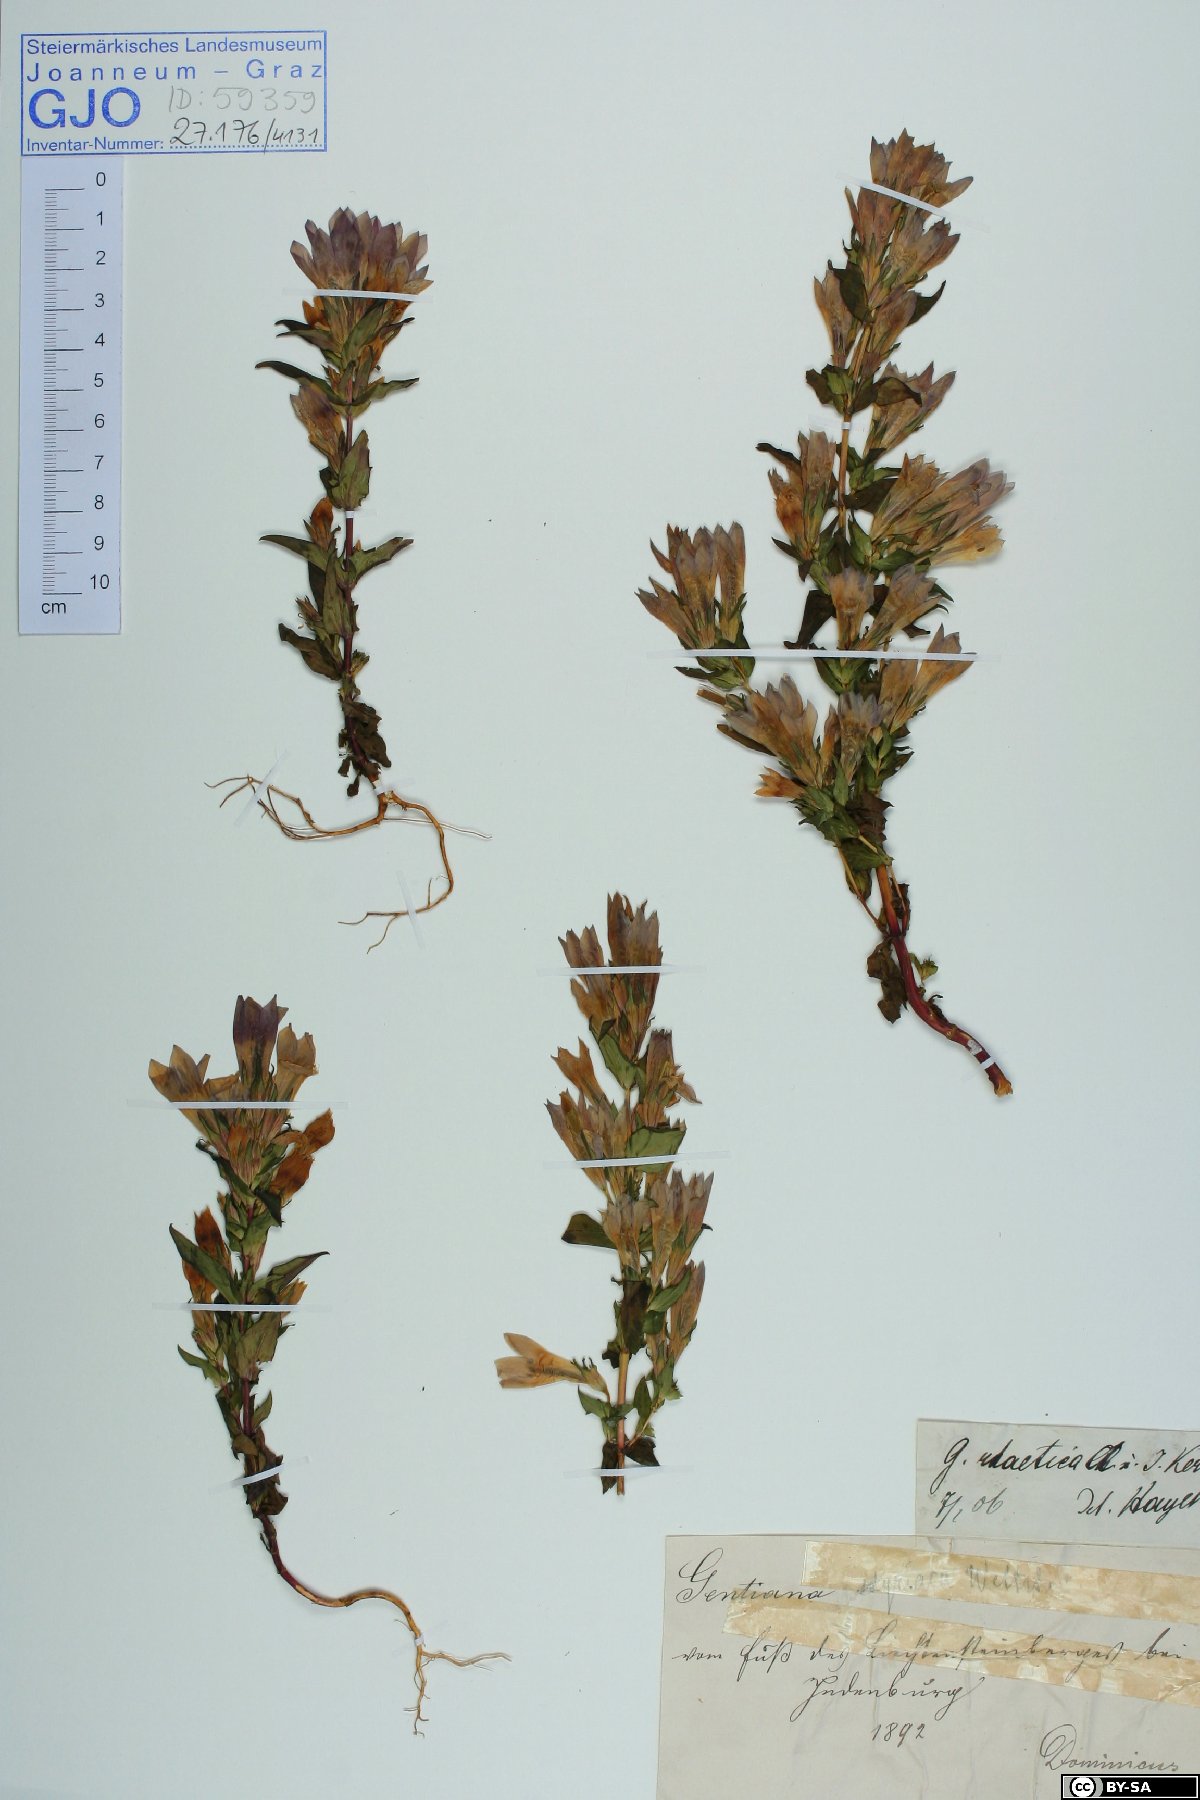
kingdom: Plantae
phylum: Tracheophyta
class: Magnoliopsida
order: Gentianales
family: Gentianaceae
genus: Gentianella
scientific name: Gentianella rhaetica
